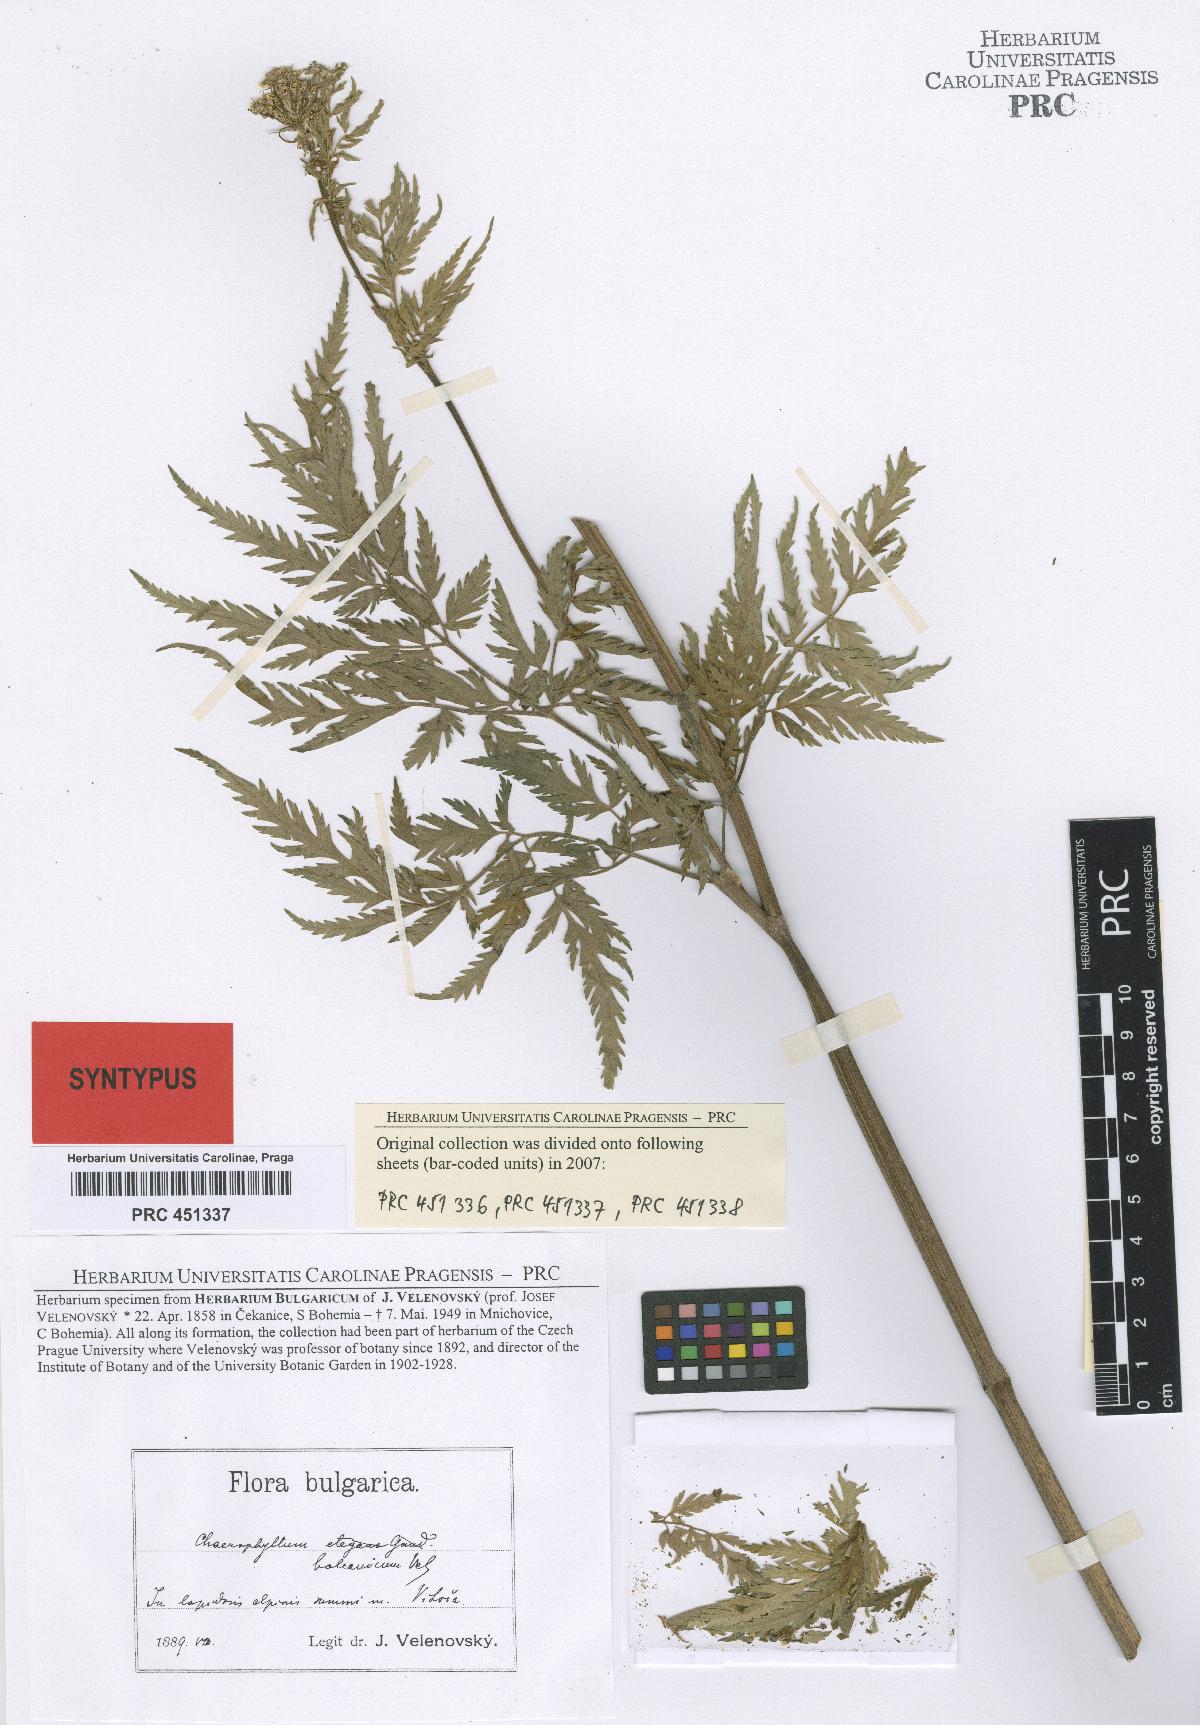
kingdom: Plantae
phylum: Tracheophyta
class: Magnoliopsida
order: Apiales
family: Apiaceae
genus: Geocaryum
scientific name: Geocaryum capillifolium
